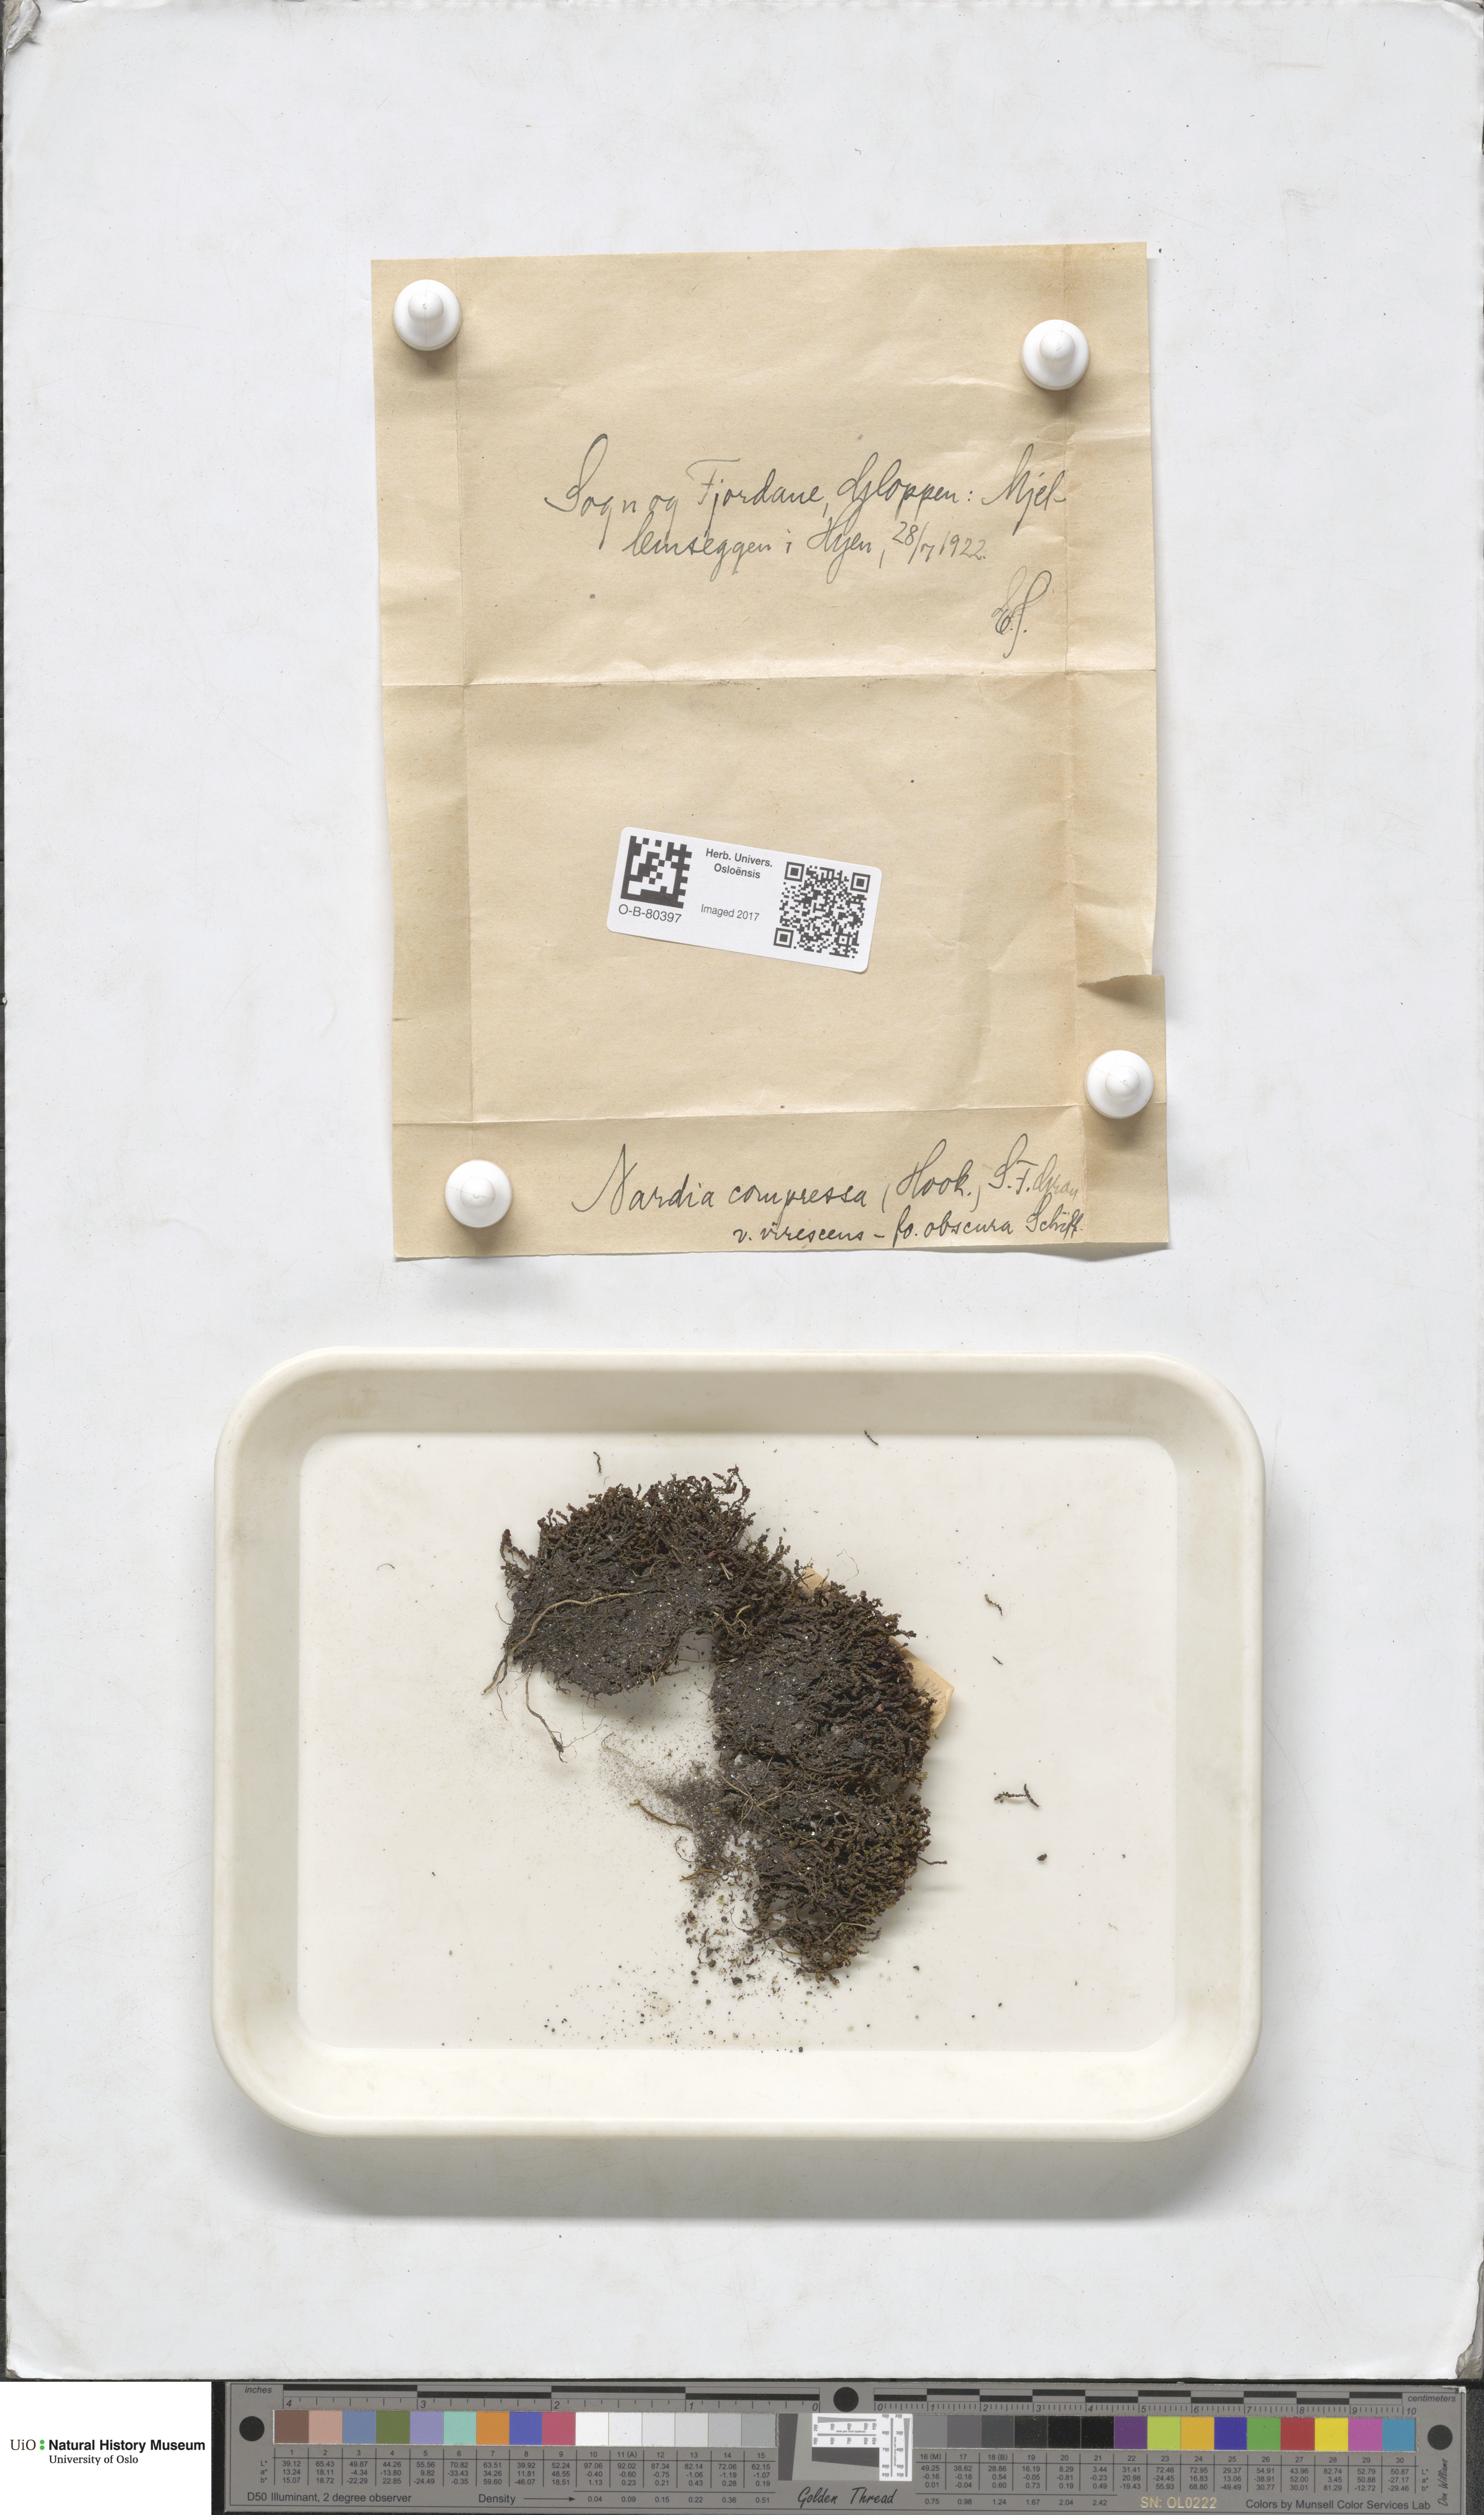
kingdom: Plantae
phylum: Marchantiophyta
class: Jungermanniopsida
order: Jungermanniales
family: Gymnomitriaceae
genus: Nardia
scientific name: Nardia compressa
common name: Compressed flapwort
